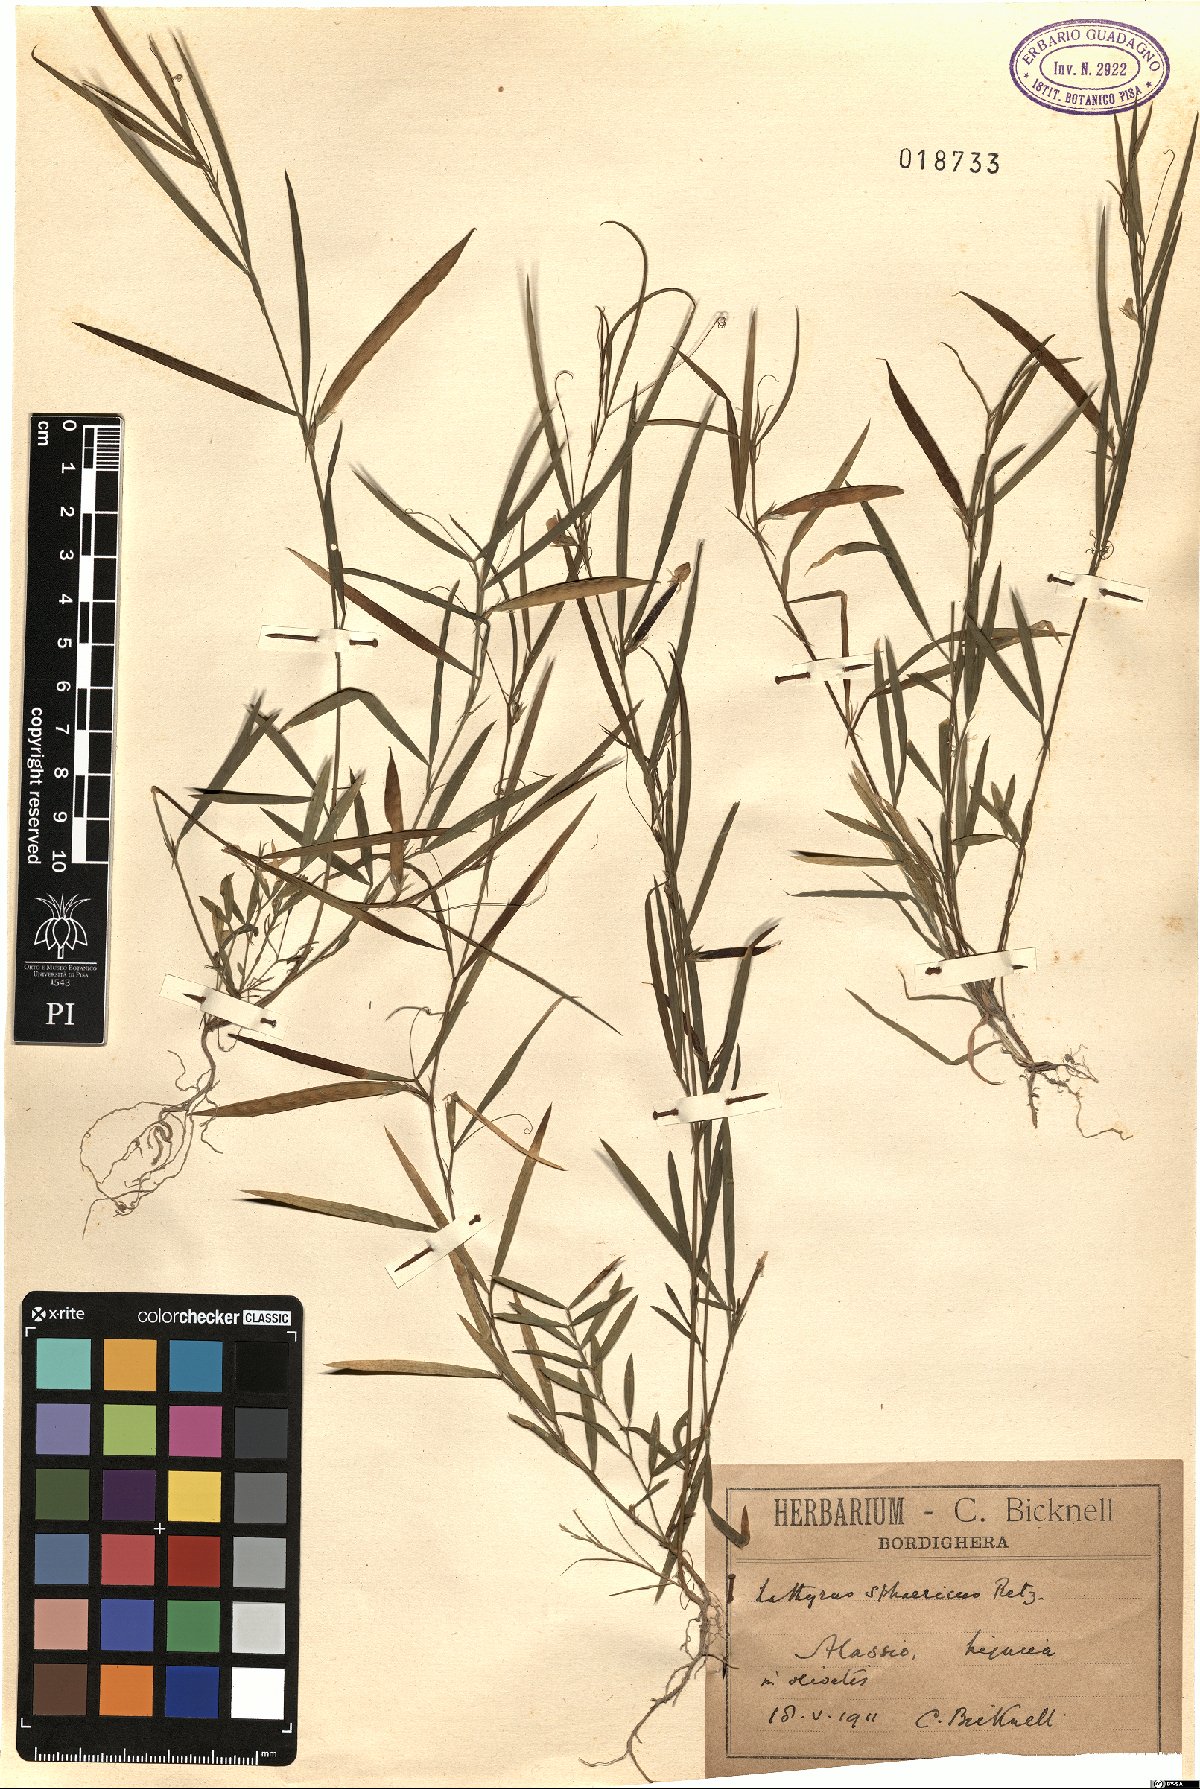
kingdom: Plantae
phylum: Tracheophyta
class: Magnoliopsida
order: Fabales
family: Fabaceae
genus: Lathyrus
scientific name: Lathyrus sphaericus
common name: Grass pea
